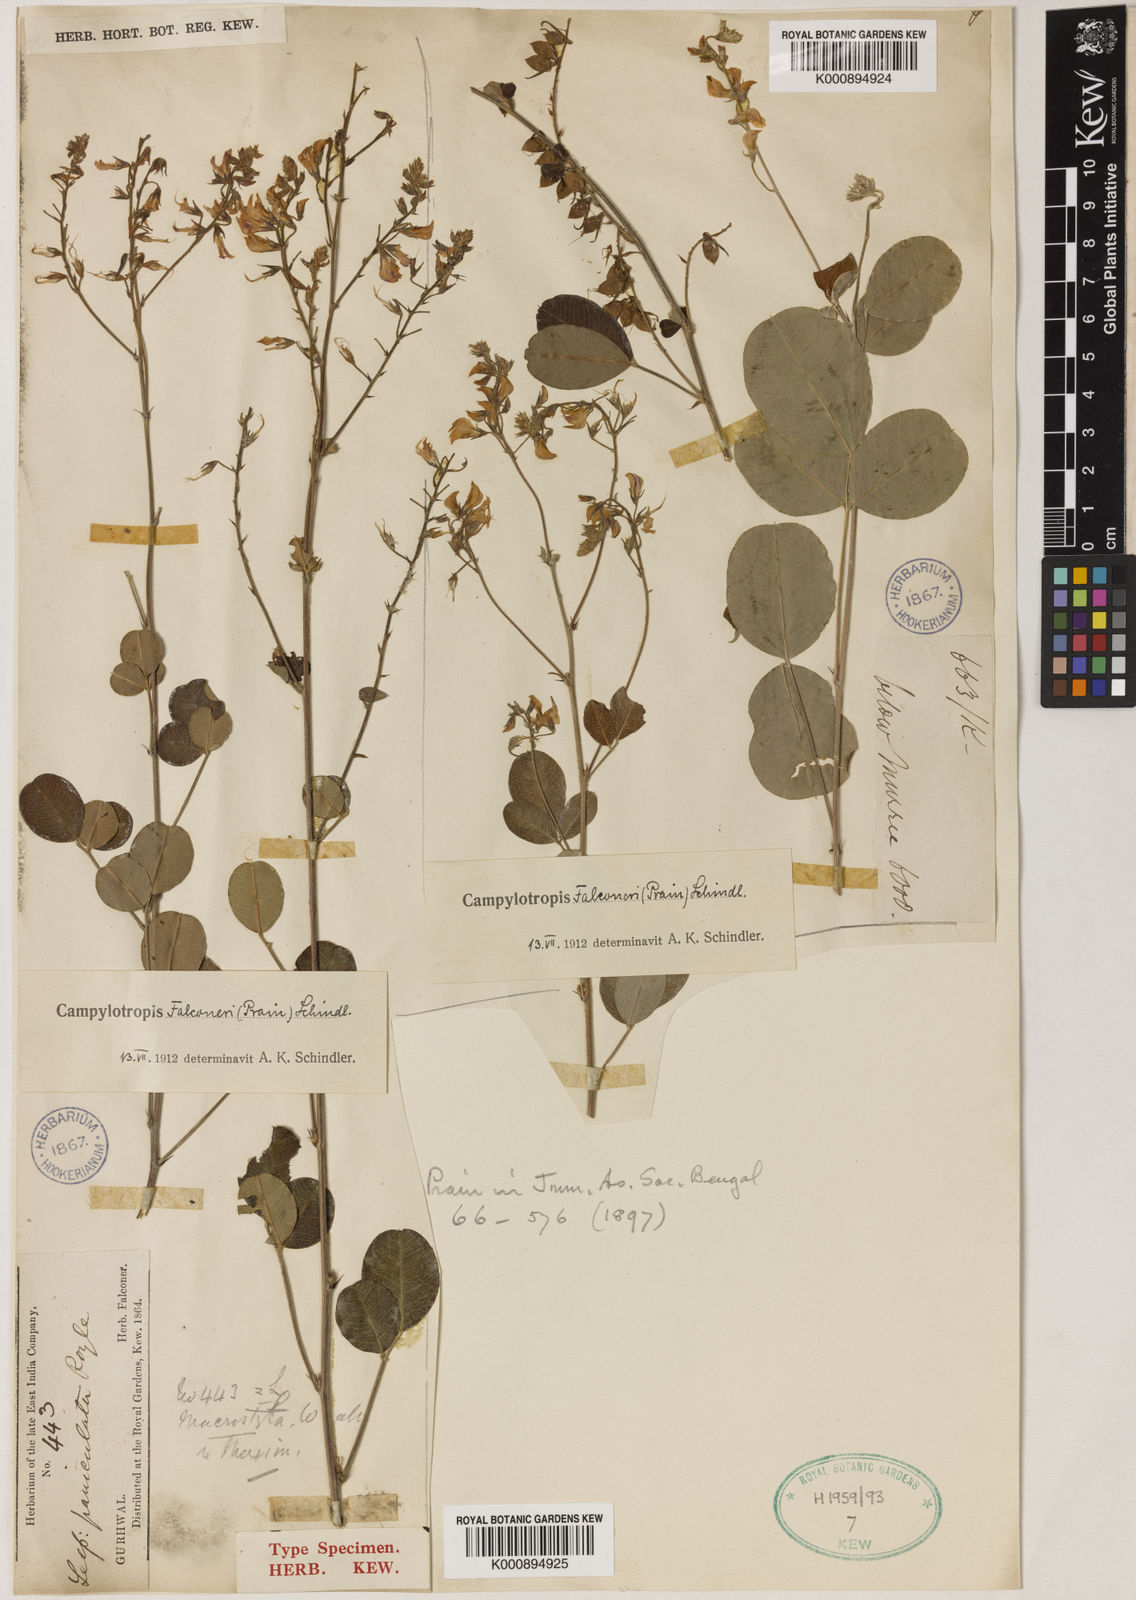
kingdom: Plantae
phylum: Tracheophyta
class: Magnoliopsida
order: Fabales
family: Fabaceae
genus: Campylotropis
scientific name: Campylotropis falconeri
